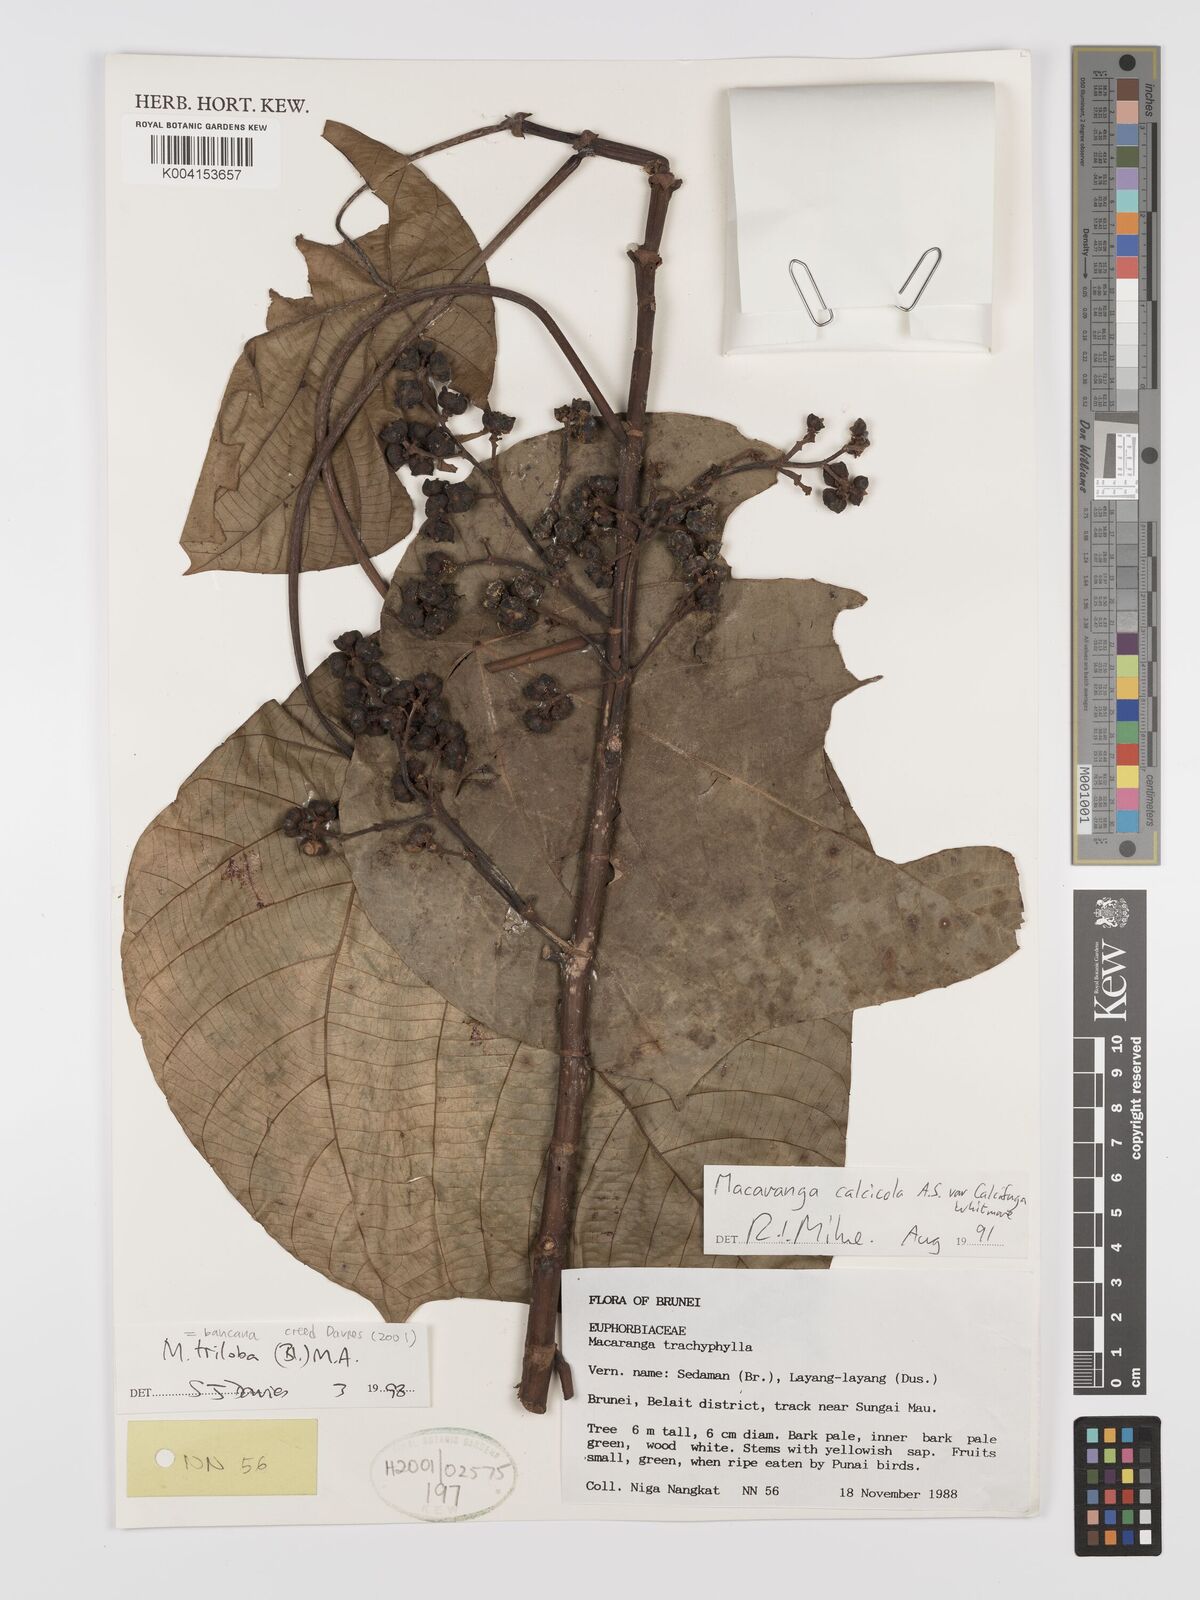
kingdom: Plantae
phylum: Tracheophyta
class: Magnoliopsida
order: Malpighiales
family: Euphorbiaceae
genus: Macaranga
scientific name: Macaranga triloba
